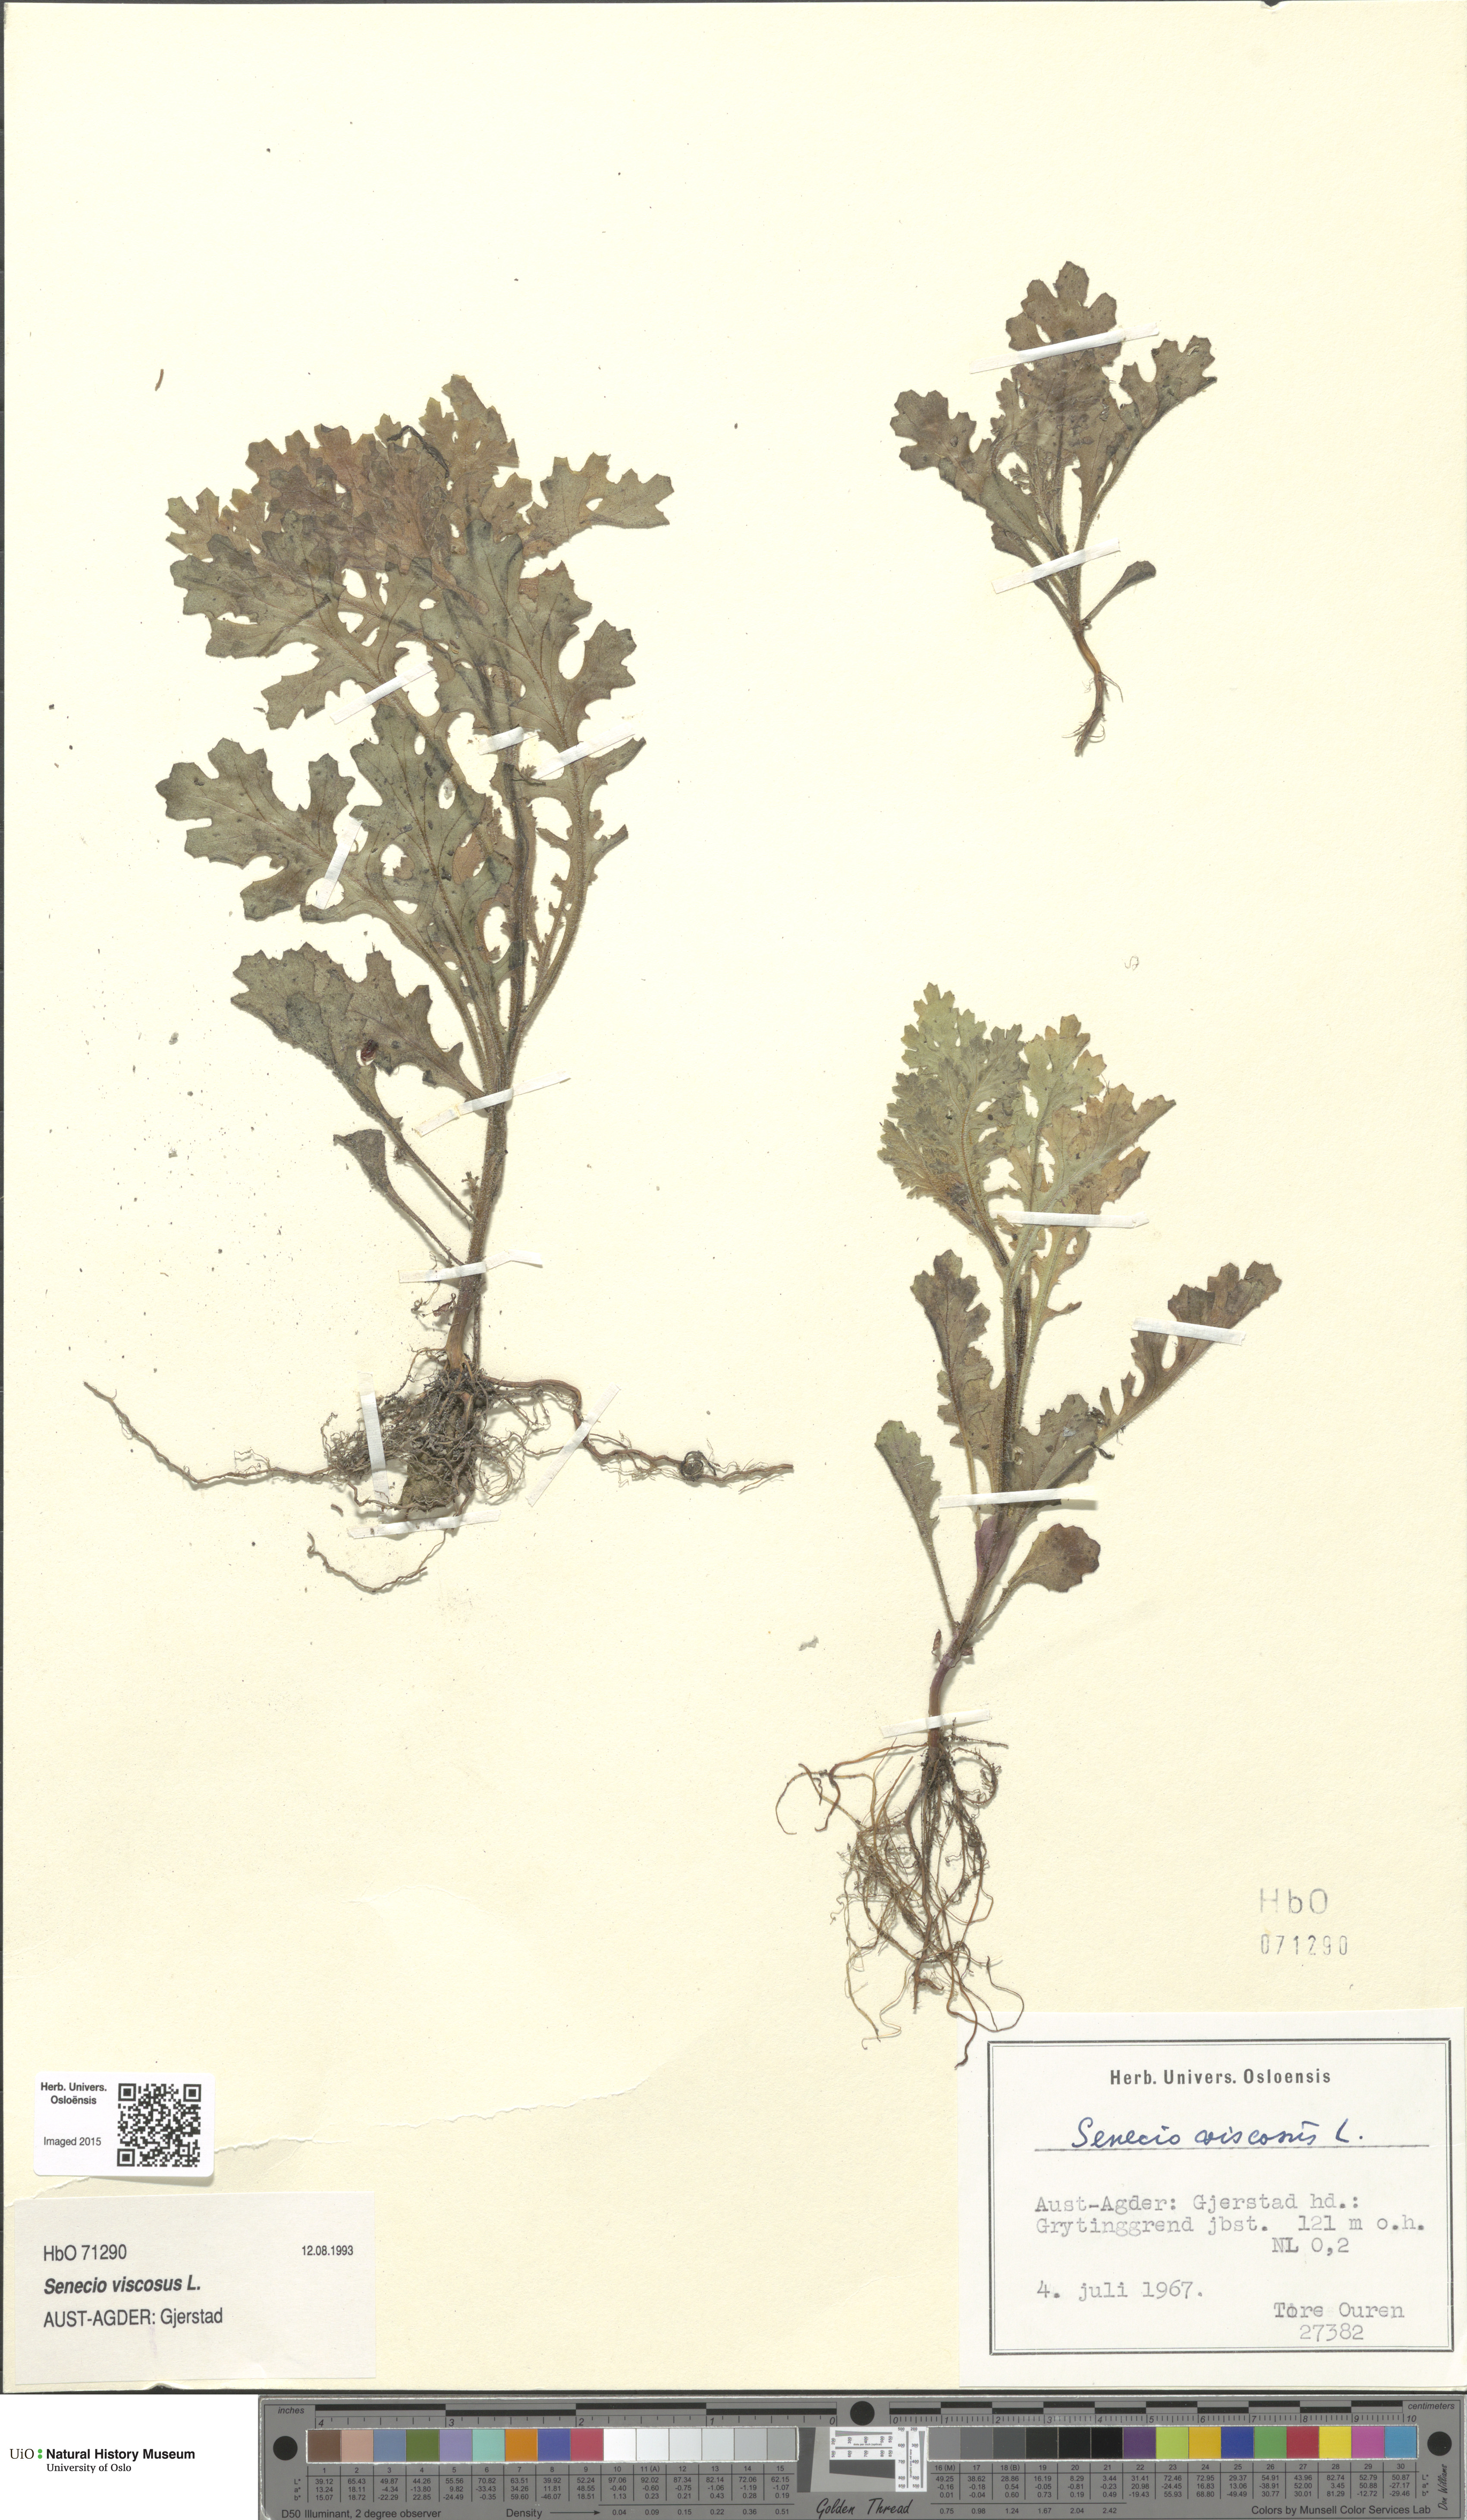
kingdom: Plantae
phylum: Tracheophyta
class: Magnoliopsida
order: Asterales
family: Asteraceae
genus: Senecio
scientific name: Senecio viscosus
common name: Sticky groundsel
